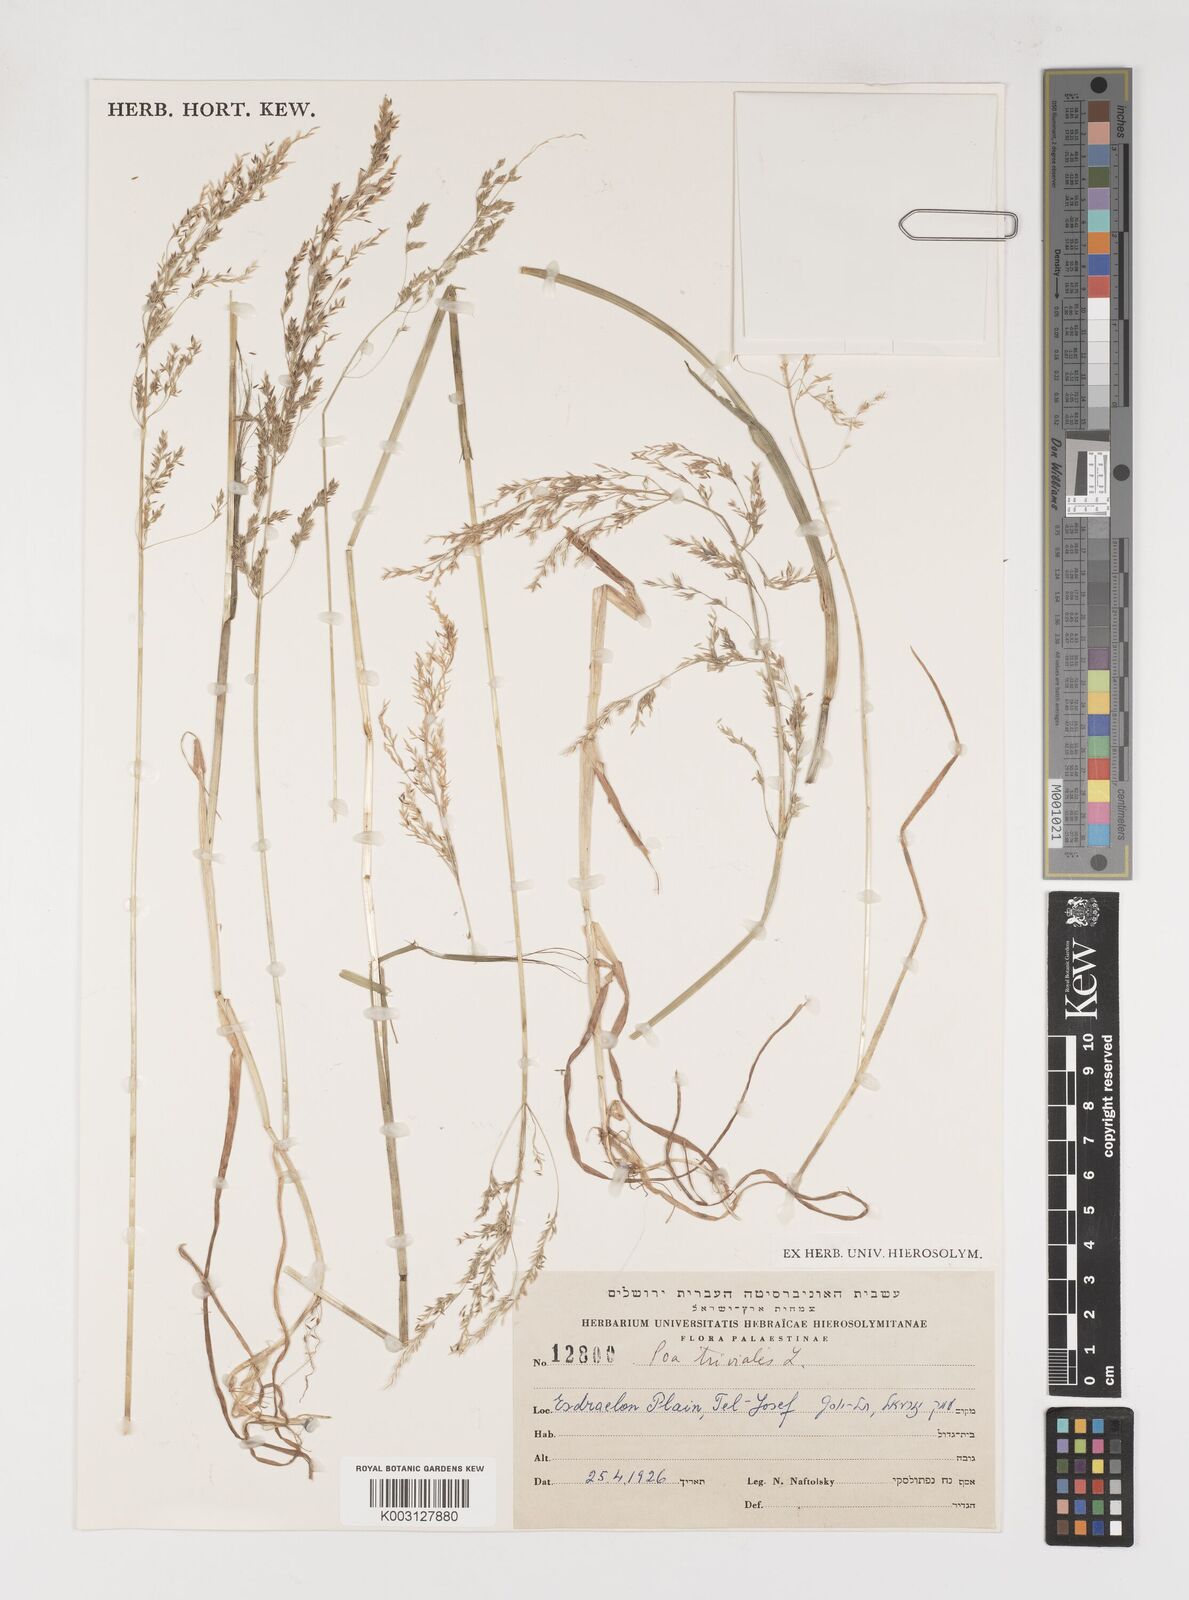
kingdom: Plantae
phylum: Tracheophyta
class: Liliopsida
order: Poales
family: Poaceae
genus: Poa
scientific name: Poa trivialis
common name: Rough bluegrass
